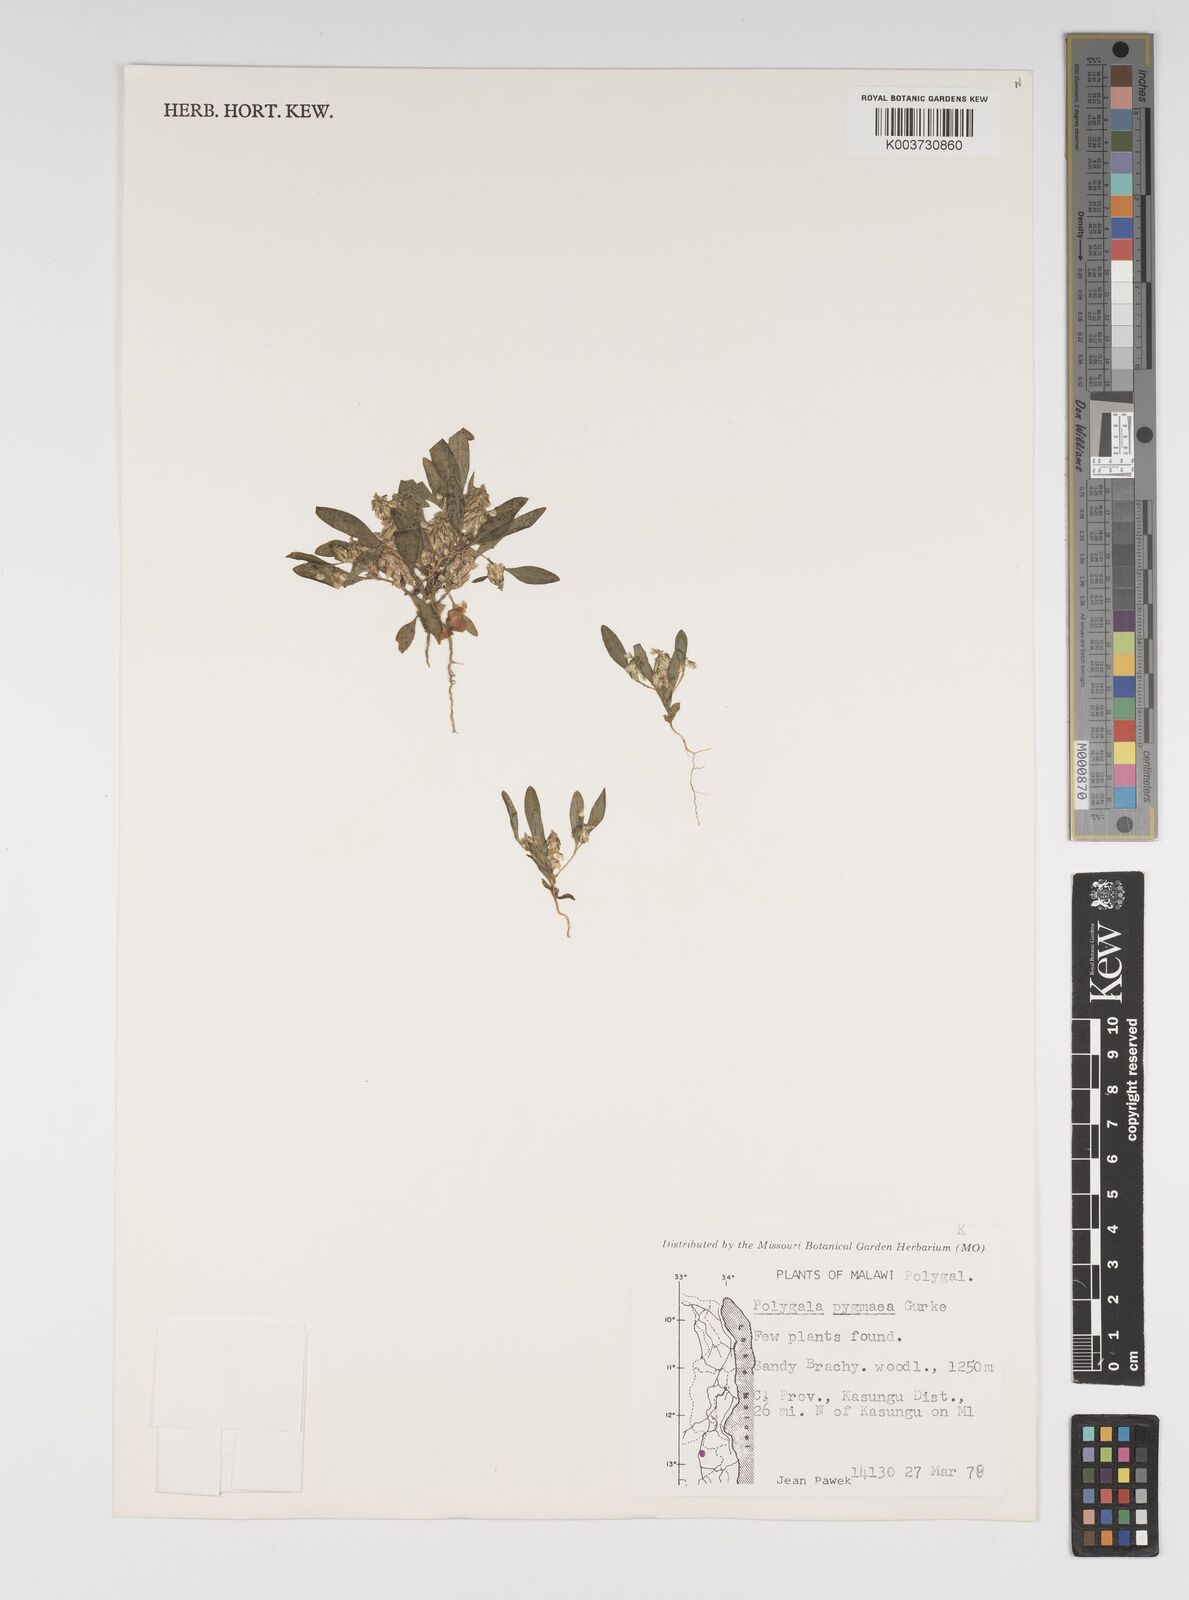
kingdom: Plantae
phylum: Tracheophyta
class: Magnoliopsida
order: Fabales
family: Polygalaceae
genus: Polygala
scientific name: Polygala welwitschii
